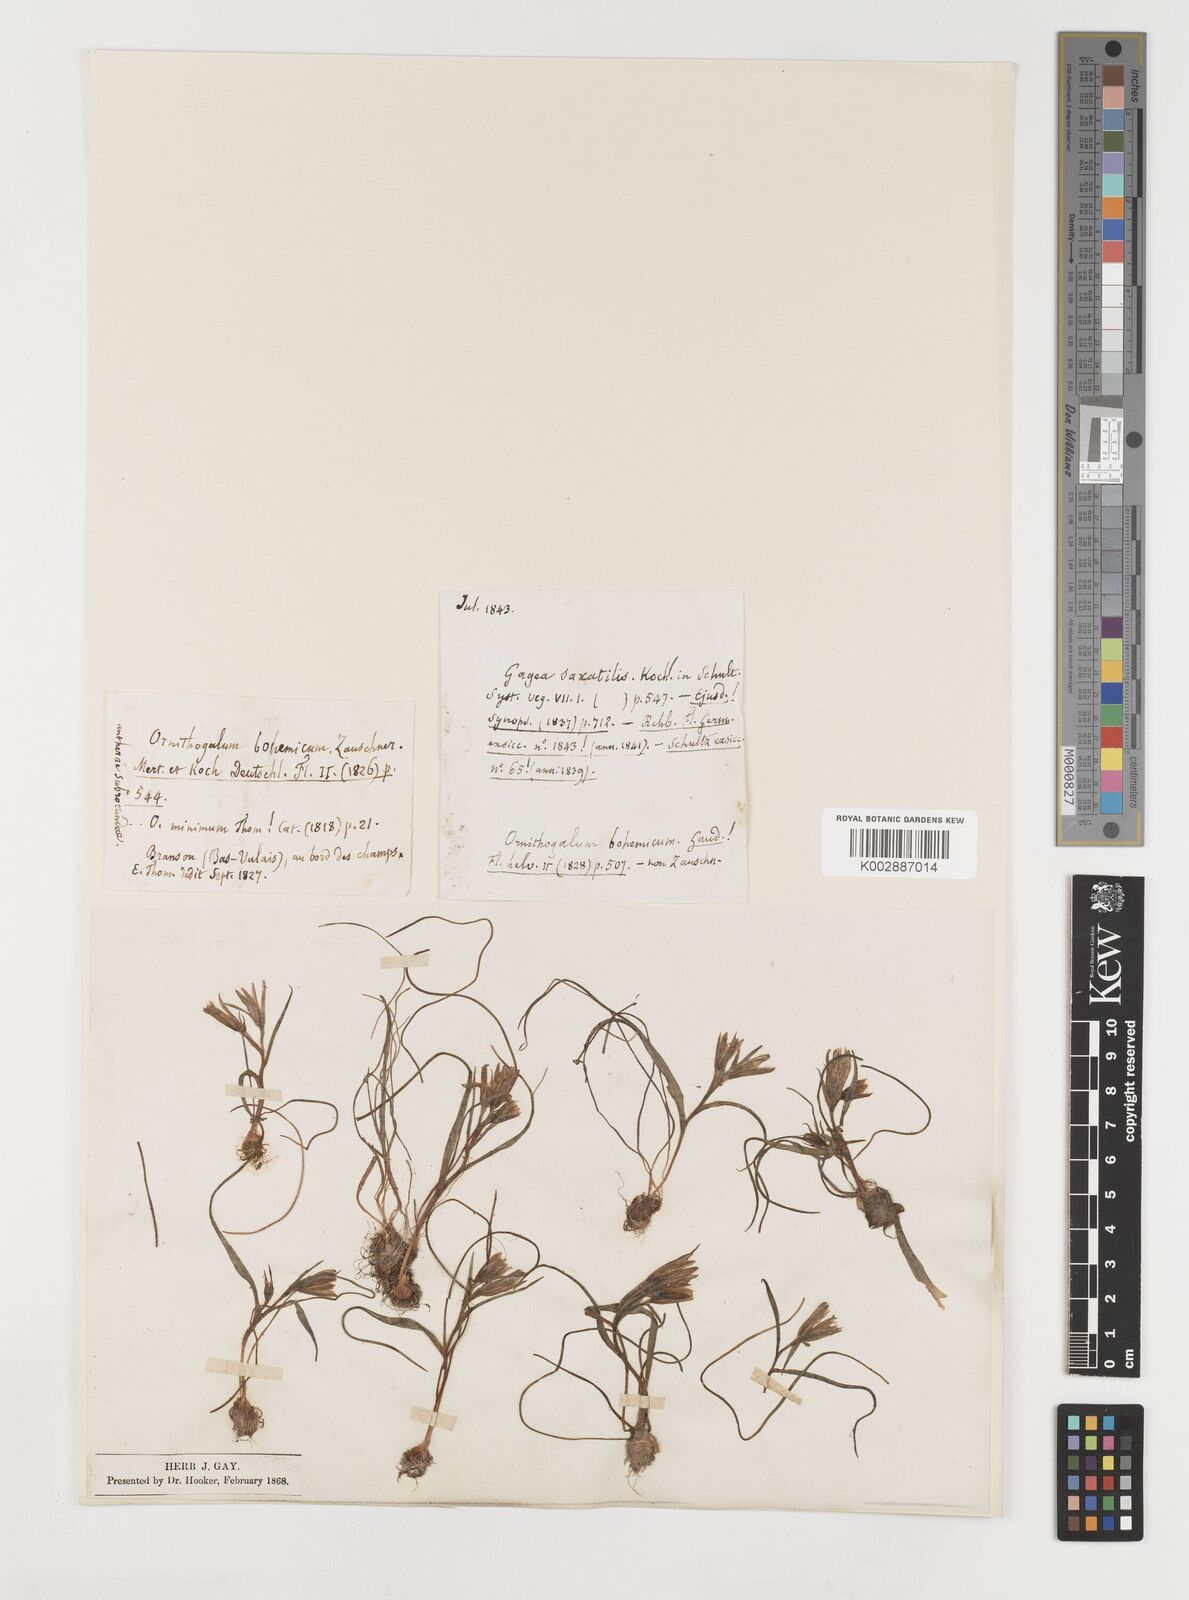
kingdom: Plantae
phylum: Tracheophyta
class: Liliopsida
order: Liliales
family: Liliaceae
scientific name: Liliaceae
